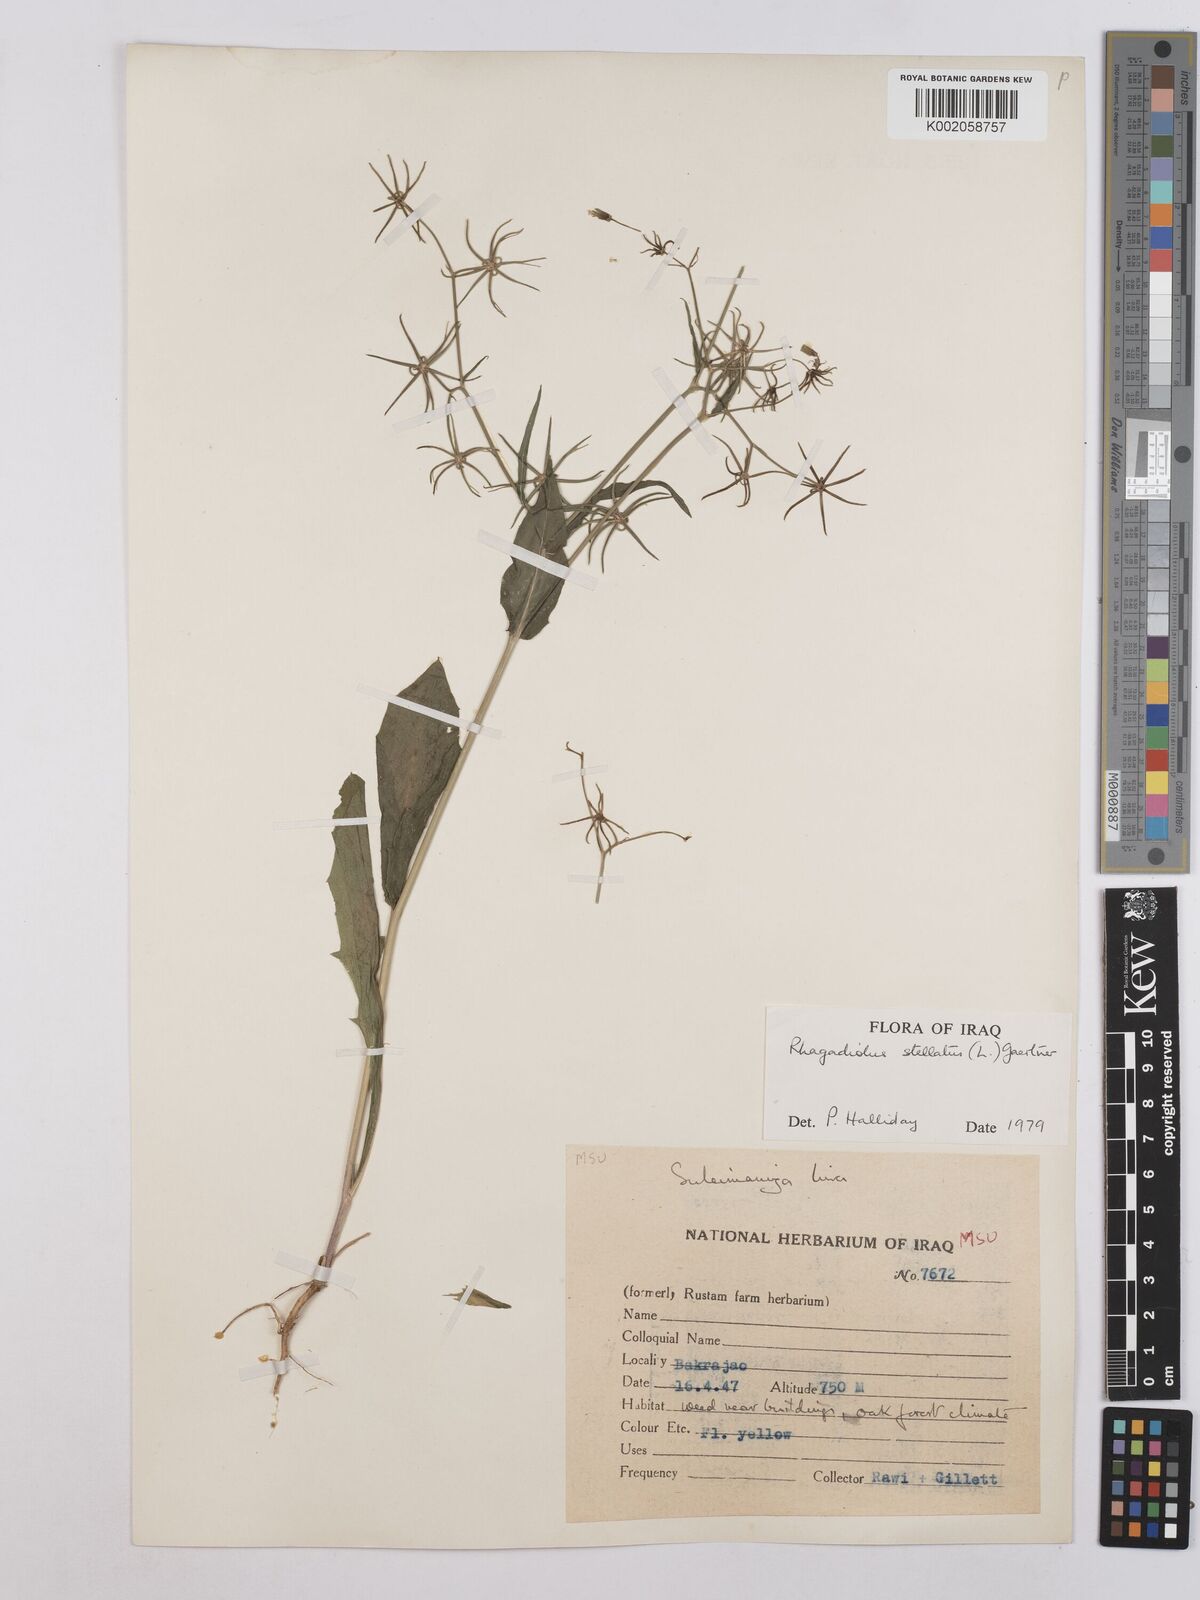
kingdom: Plantae
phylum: Tracheophyta
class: Magnoliopsida
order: Asterales
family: Asteraceae
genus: Rhagadiolus
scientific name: Rhagadiolus stellatus
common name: Star hawkbit
